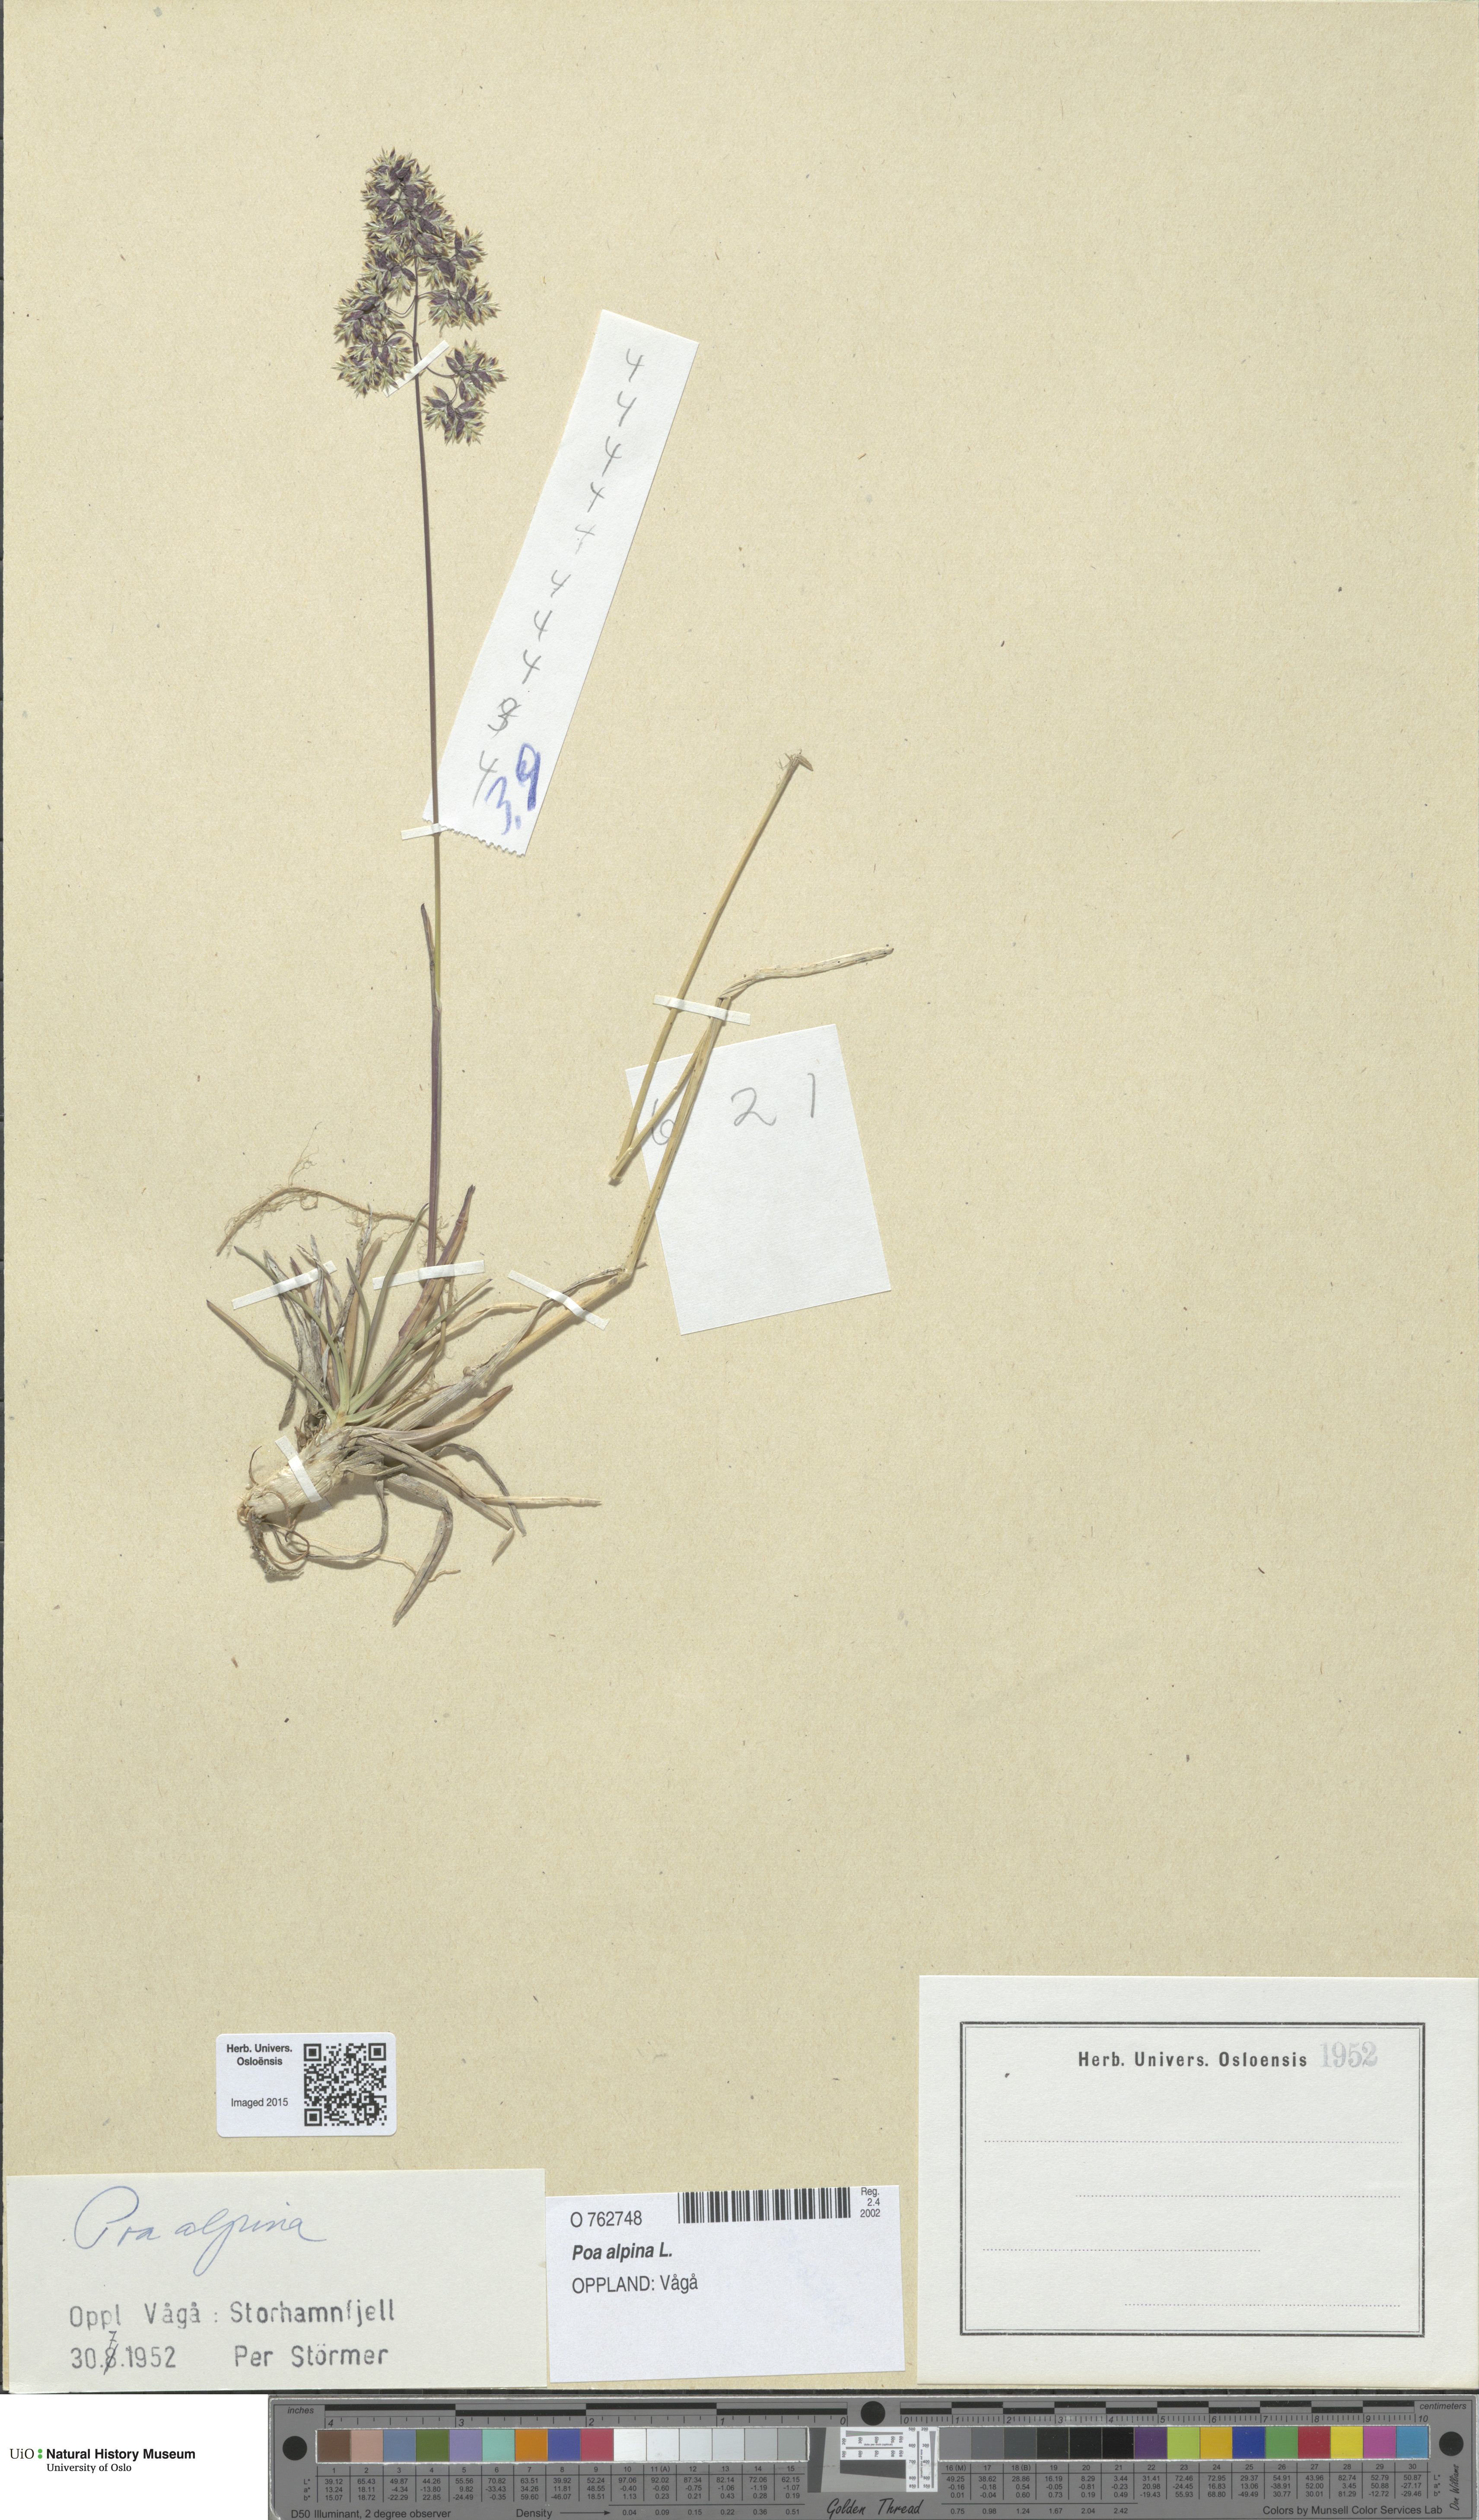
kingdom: Plantae
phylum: Tracheophyta
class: Liliopsida
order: Poales
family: Poaceae
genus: Poa
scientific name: Poa alpina
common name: Alpine bluegrass
